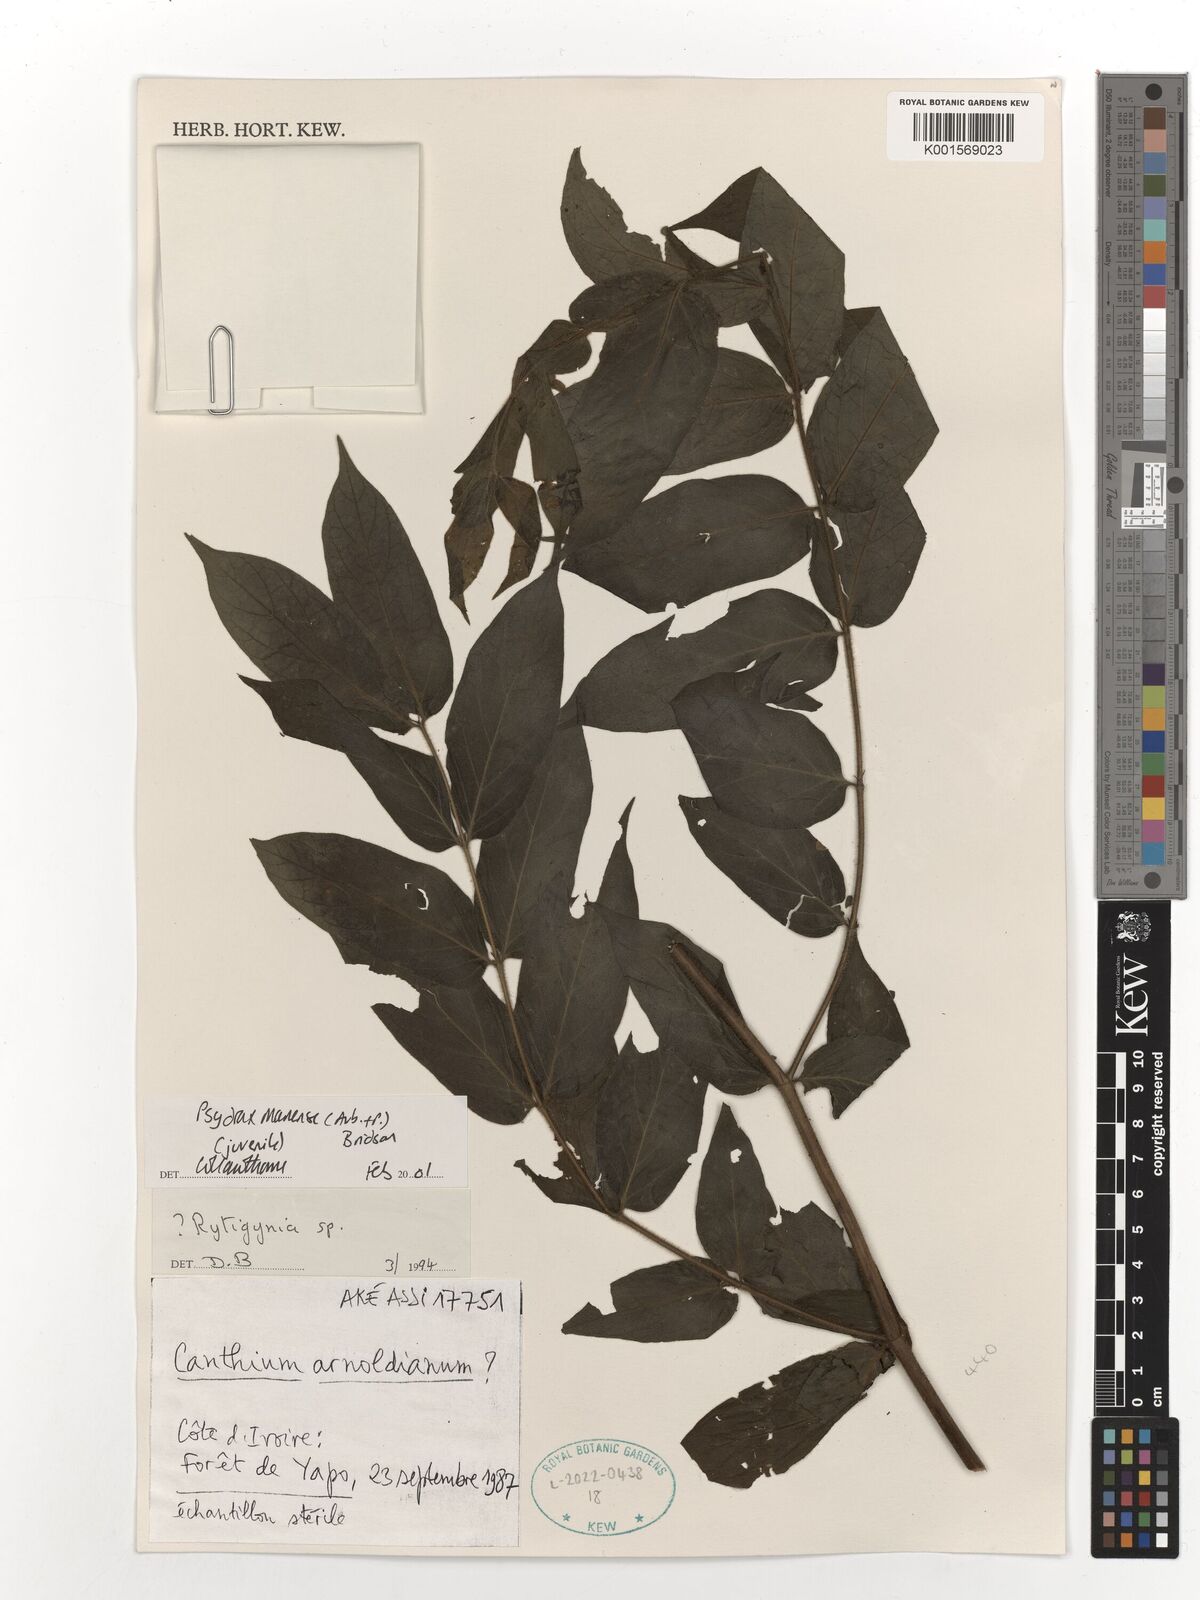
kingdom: Plantae
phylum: Tracheophyta
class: Magnoliopsida
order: Gentianales
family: Rubiaceae
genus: Psydrax
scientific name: Psydrax manensis
